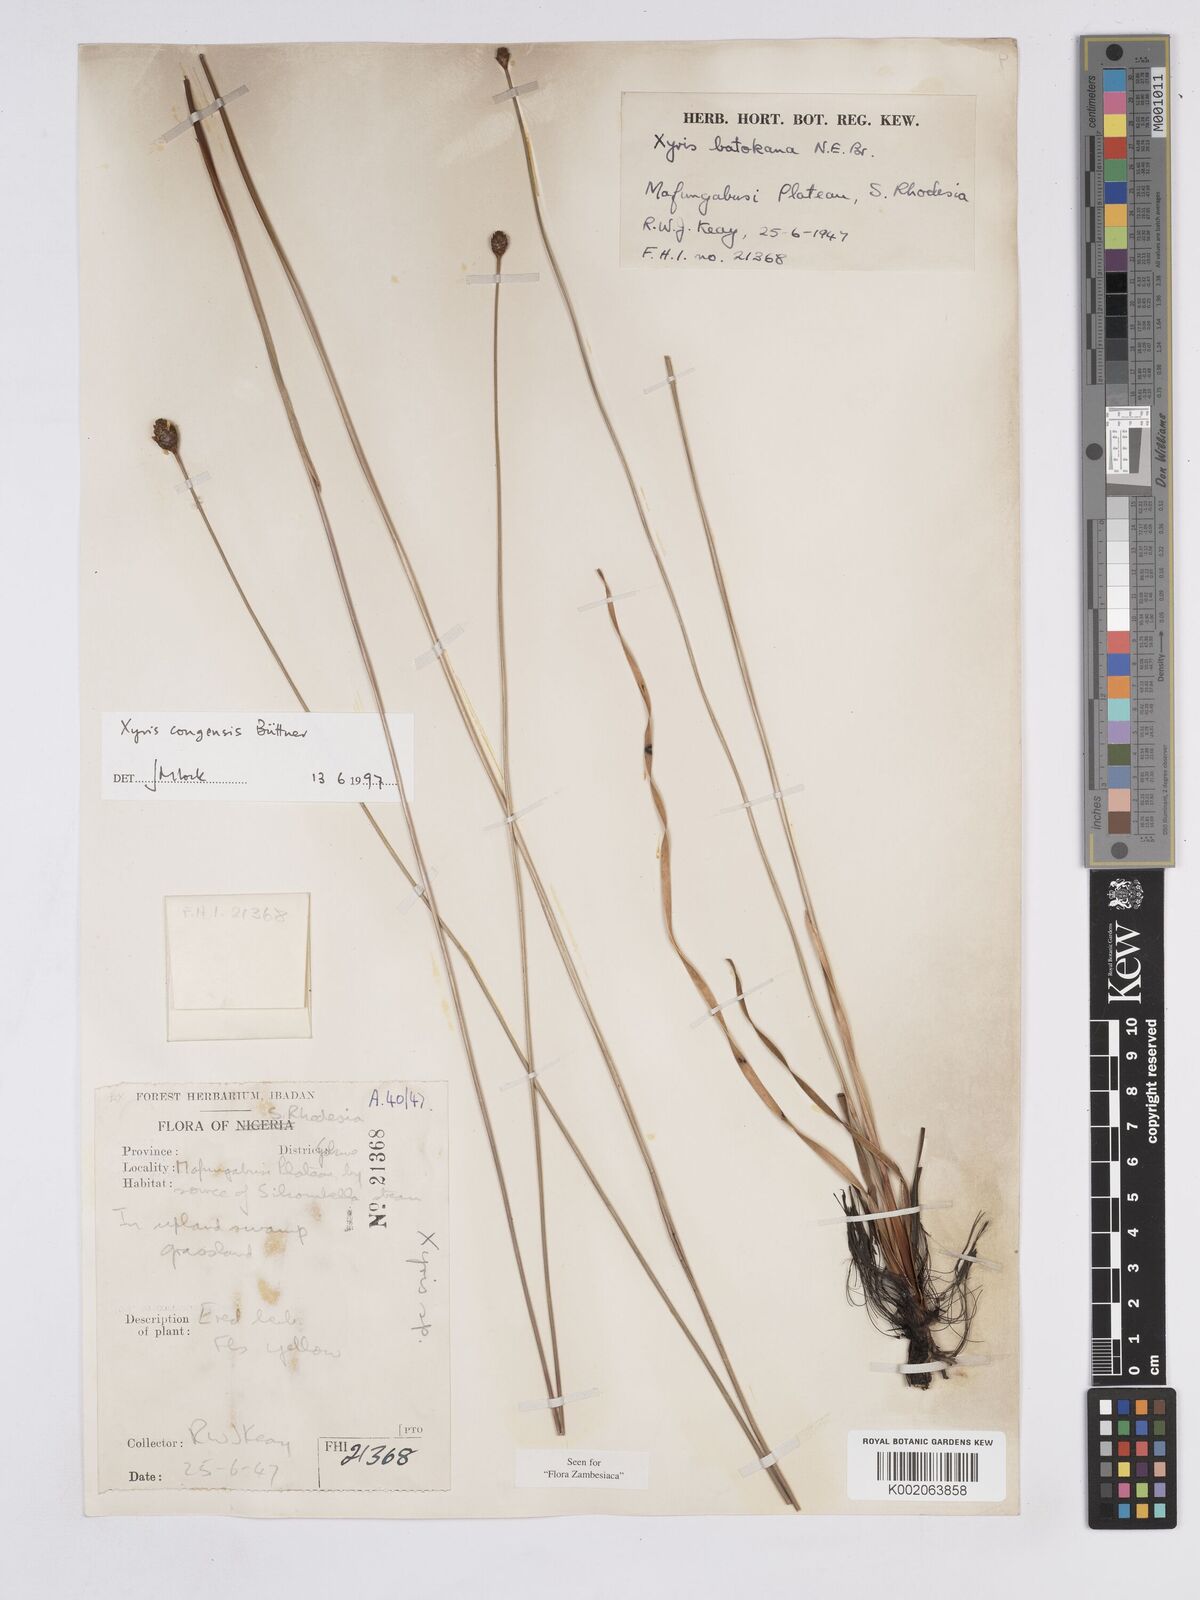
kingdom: Plantae
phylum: Tracheophyta
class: Liliopsida
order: Poales
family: Xyridaceae
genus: Xyris
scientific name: Xyris congensis
